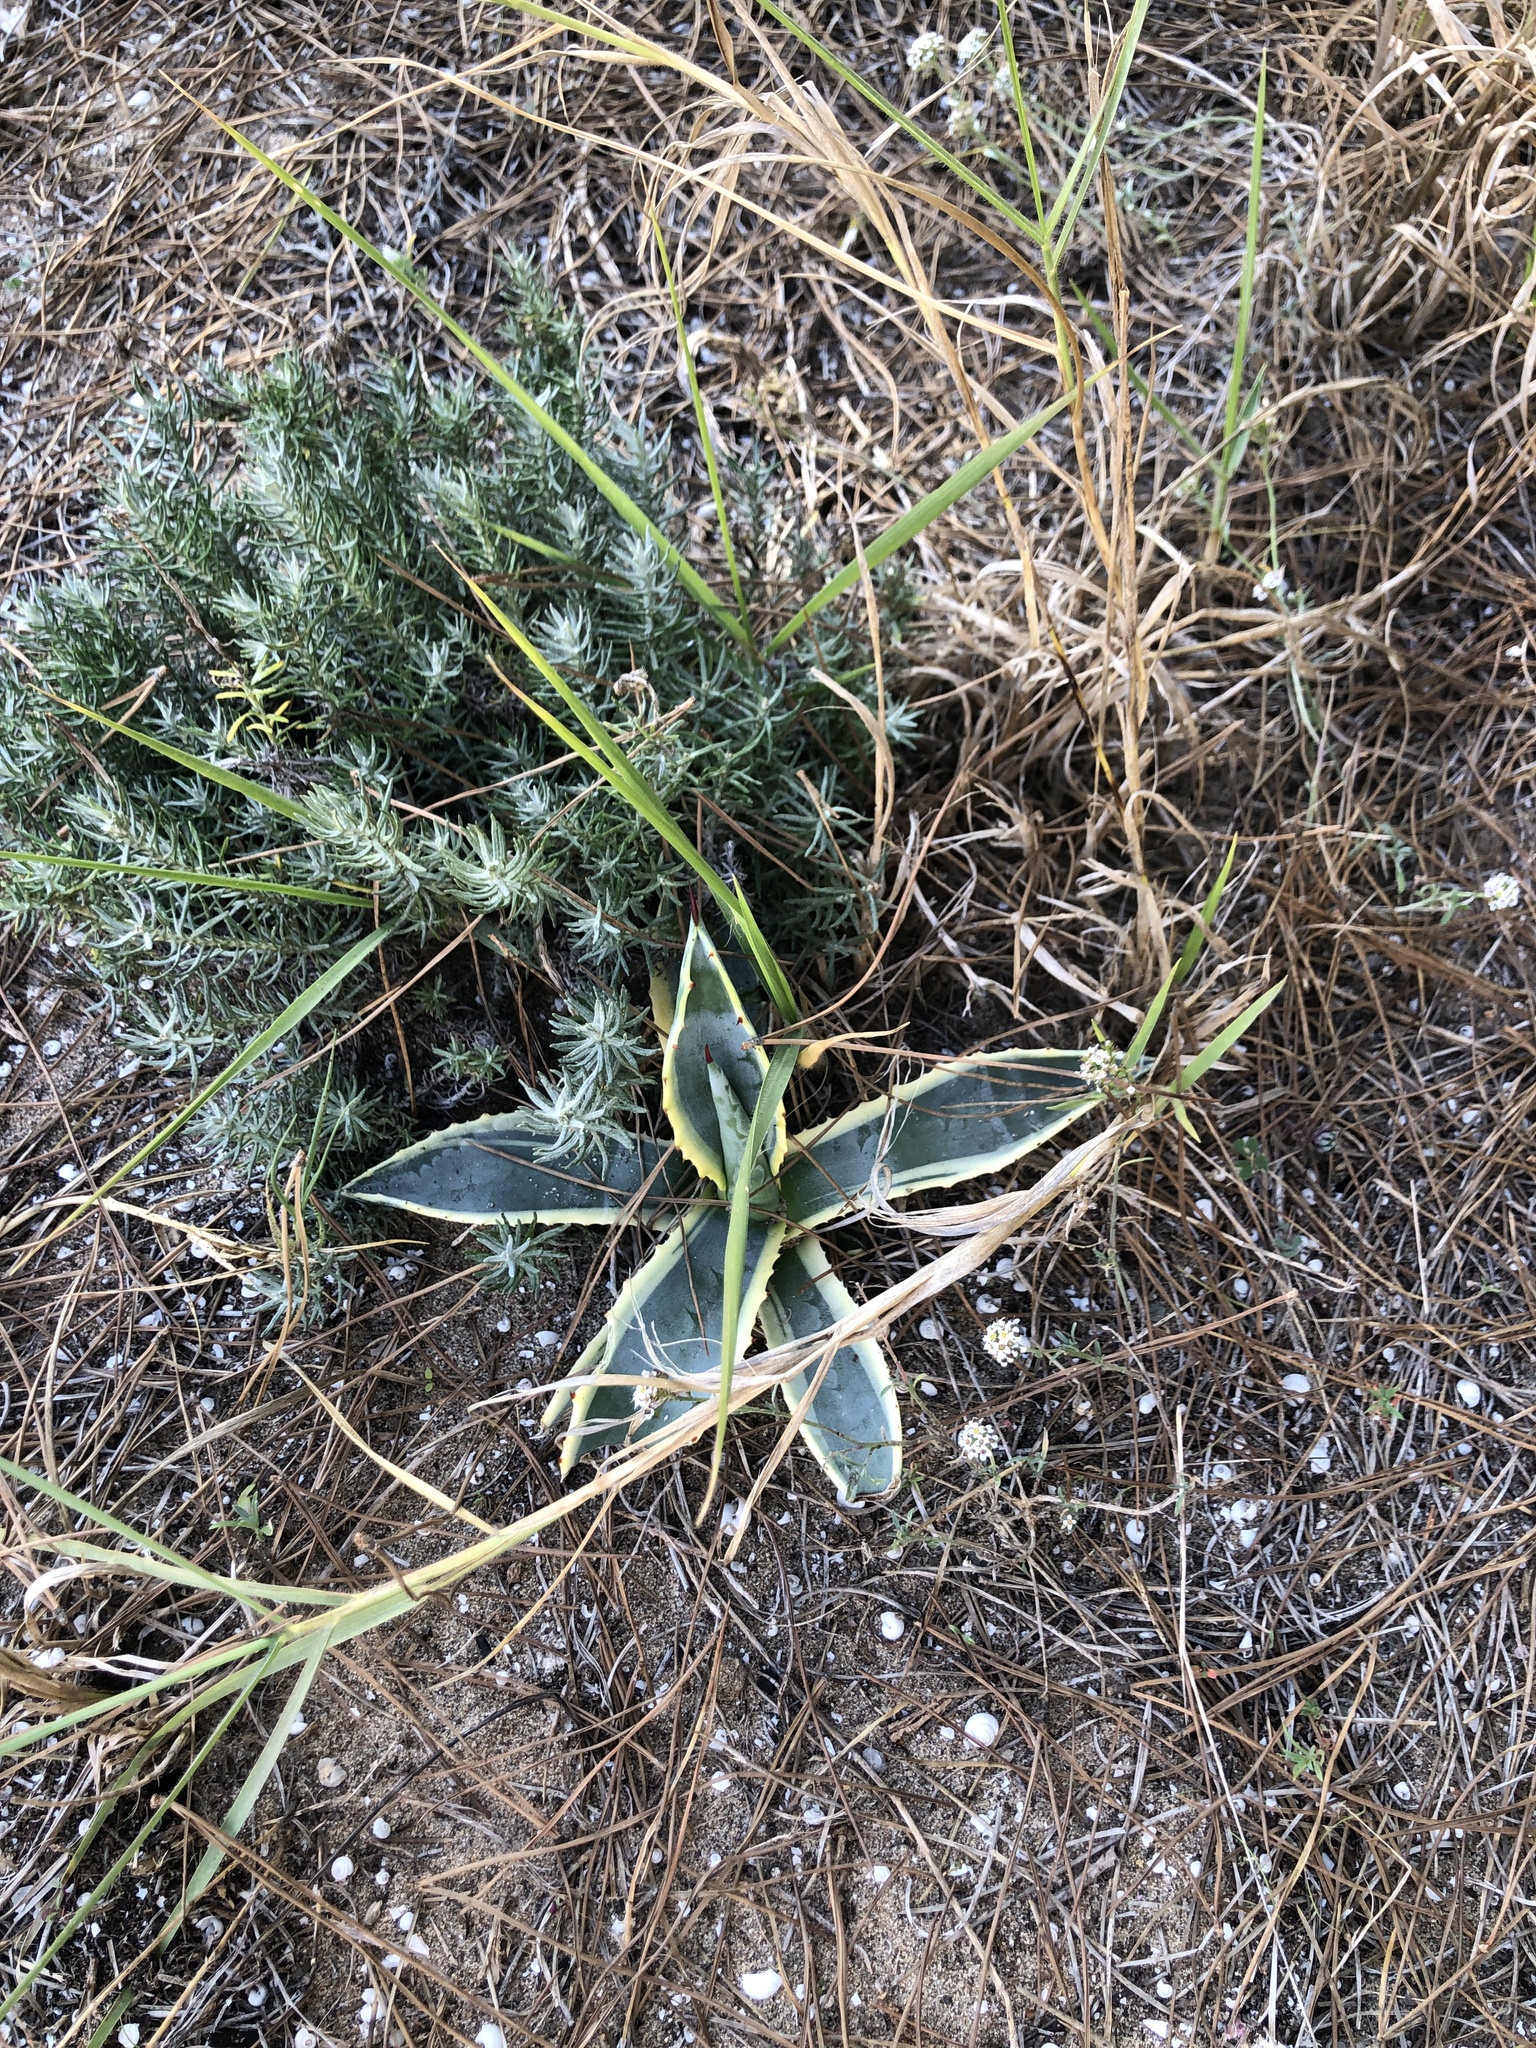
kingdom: Plantae
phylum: Tracheophyta
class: Liliopsida
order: Asparagales
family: Asparagaceae
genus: Agave
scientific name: Agave americana
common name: Centuryplant
